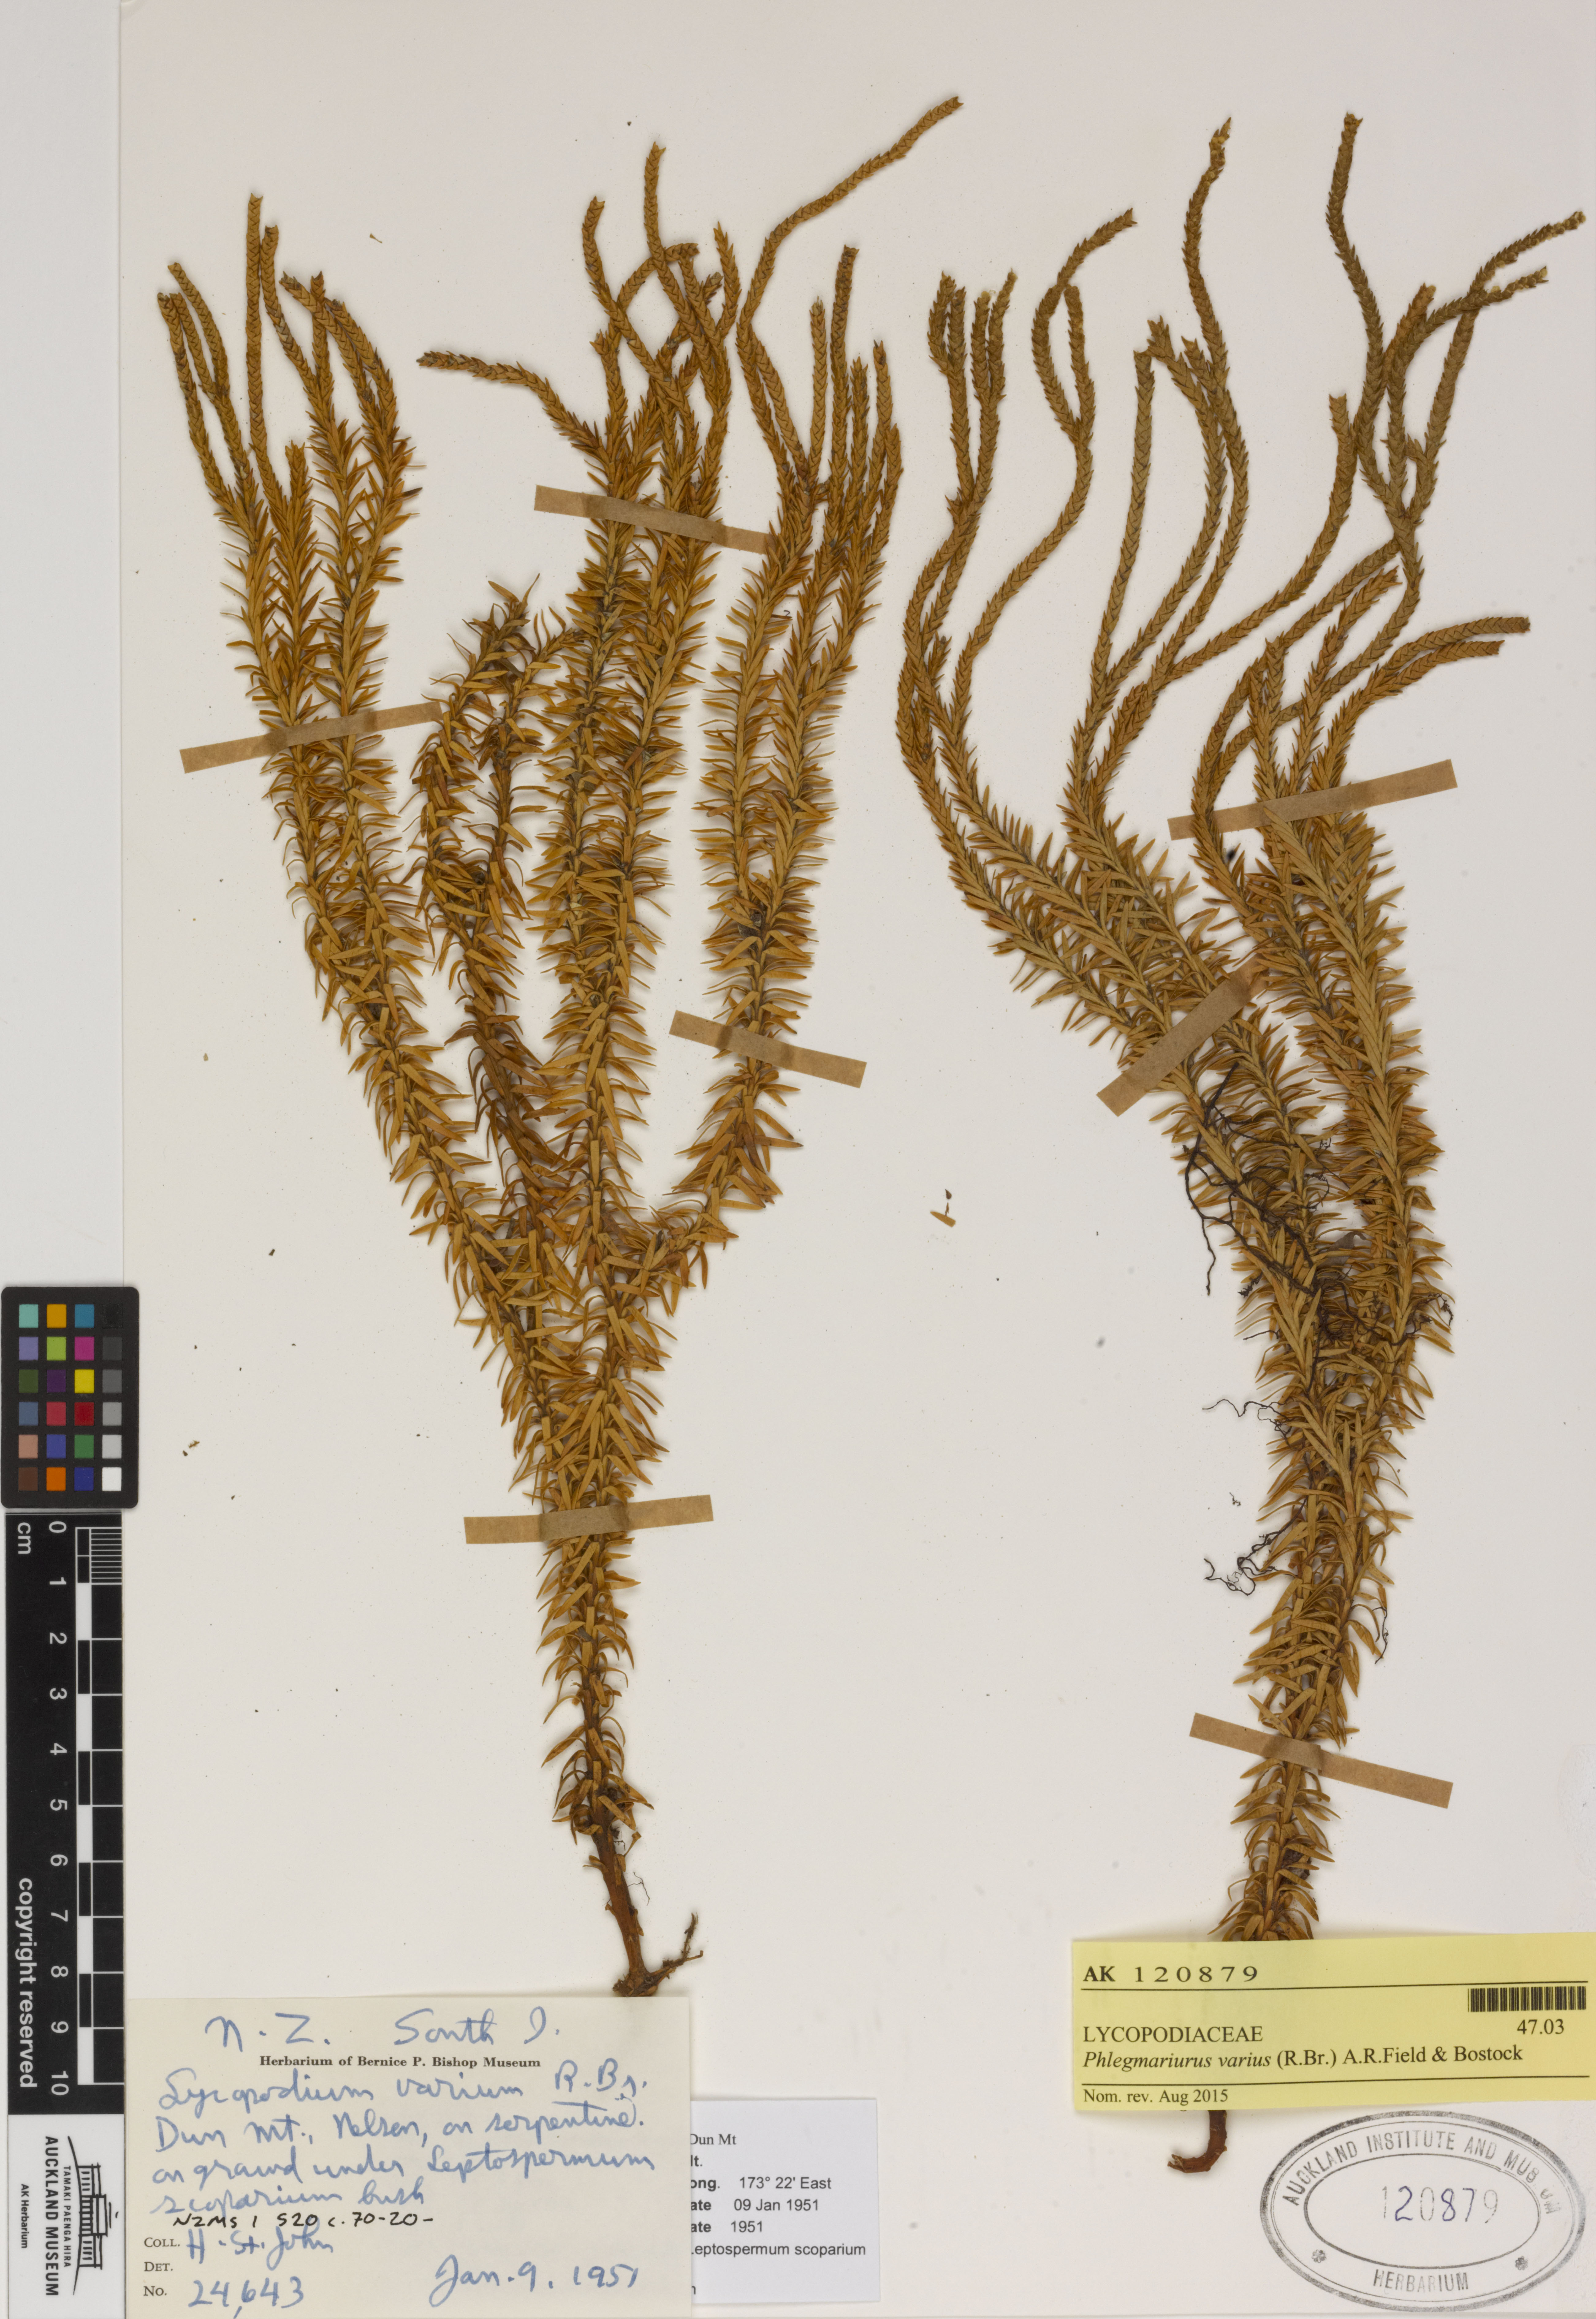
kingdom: Plantae
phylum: Tracheophyta
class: Lycopodiopsida
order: Lycopodiales
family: Lycopodiaceae
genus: Phlegmariurus
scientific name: Phlegmariurus varius
